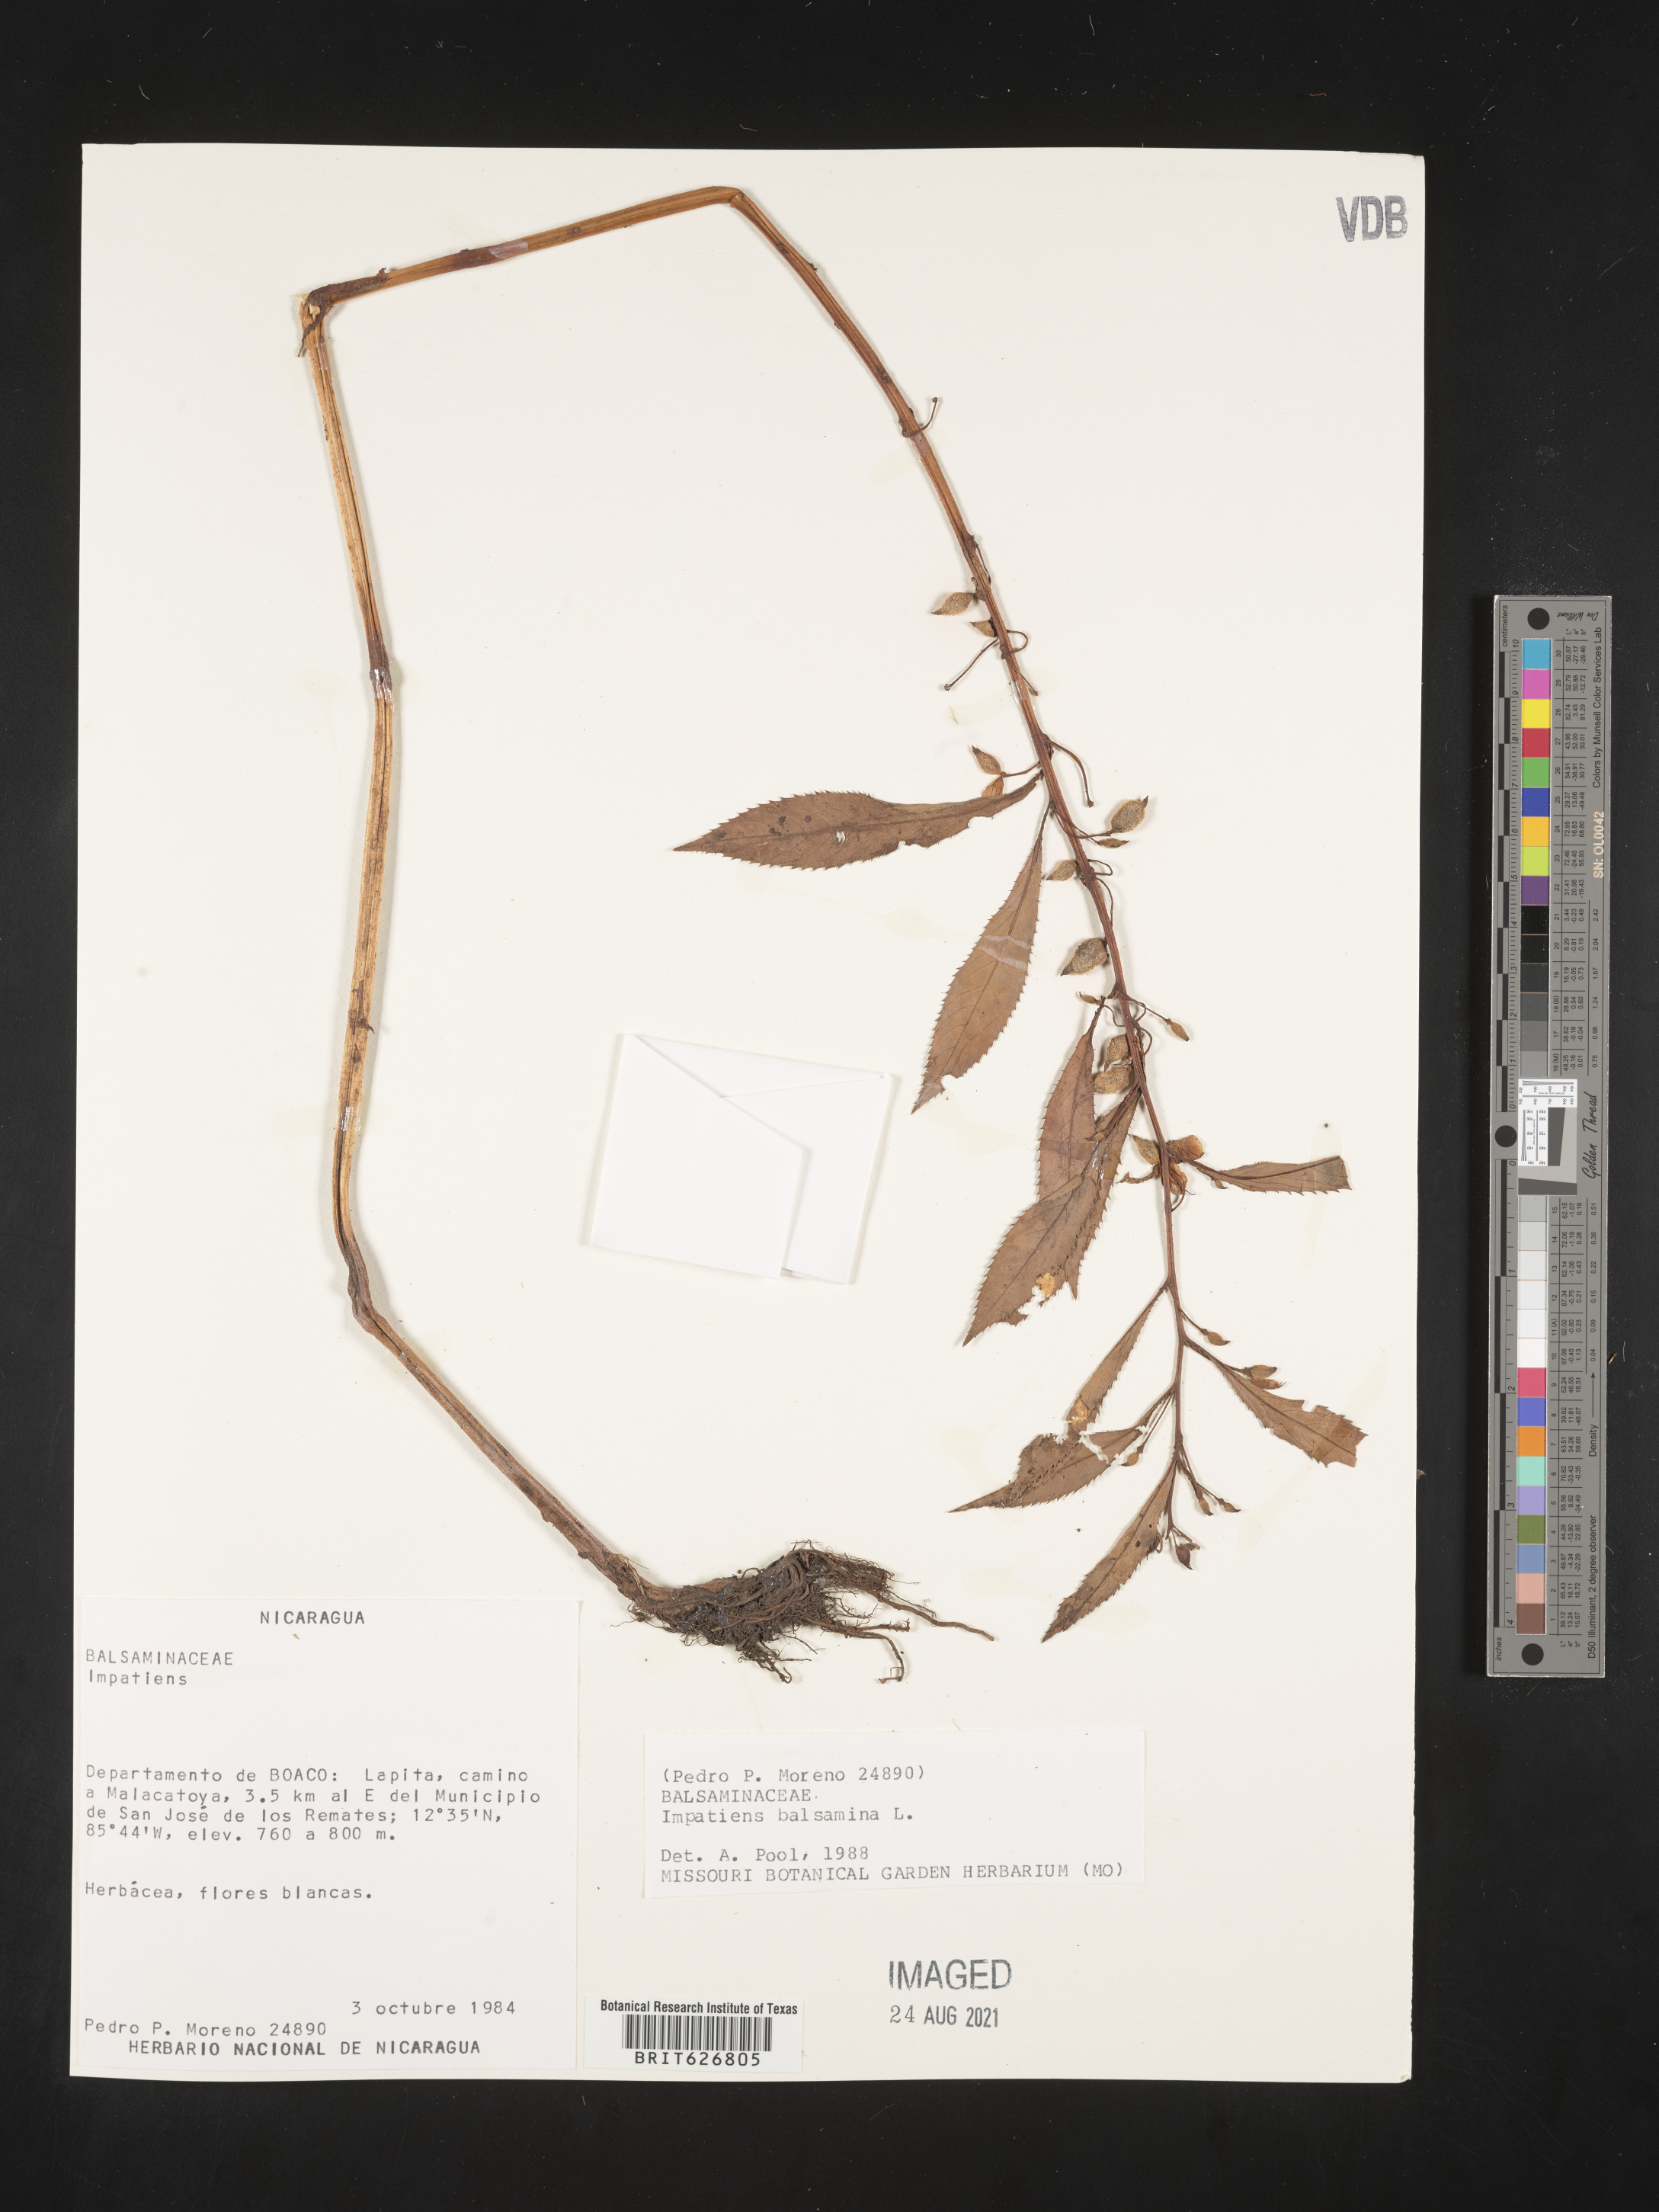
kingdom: Plantae
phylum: Tracheophyta
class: Magnoliopsida
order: Ericales
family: Balsaminaceae
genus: Impatiens
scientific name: Impatiens balsamina
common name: Balsam
